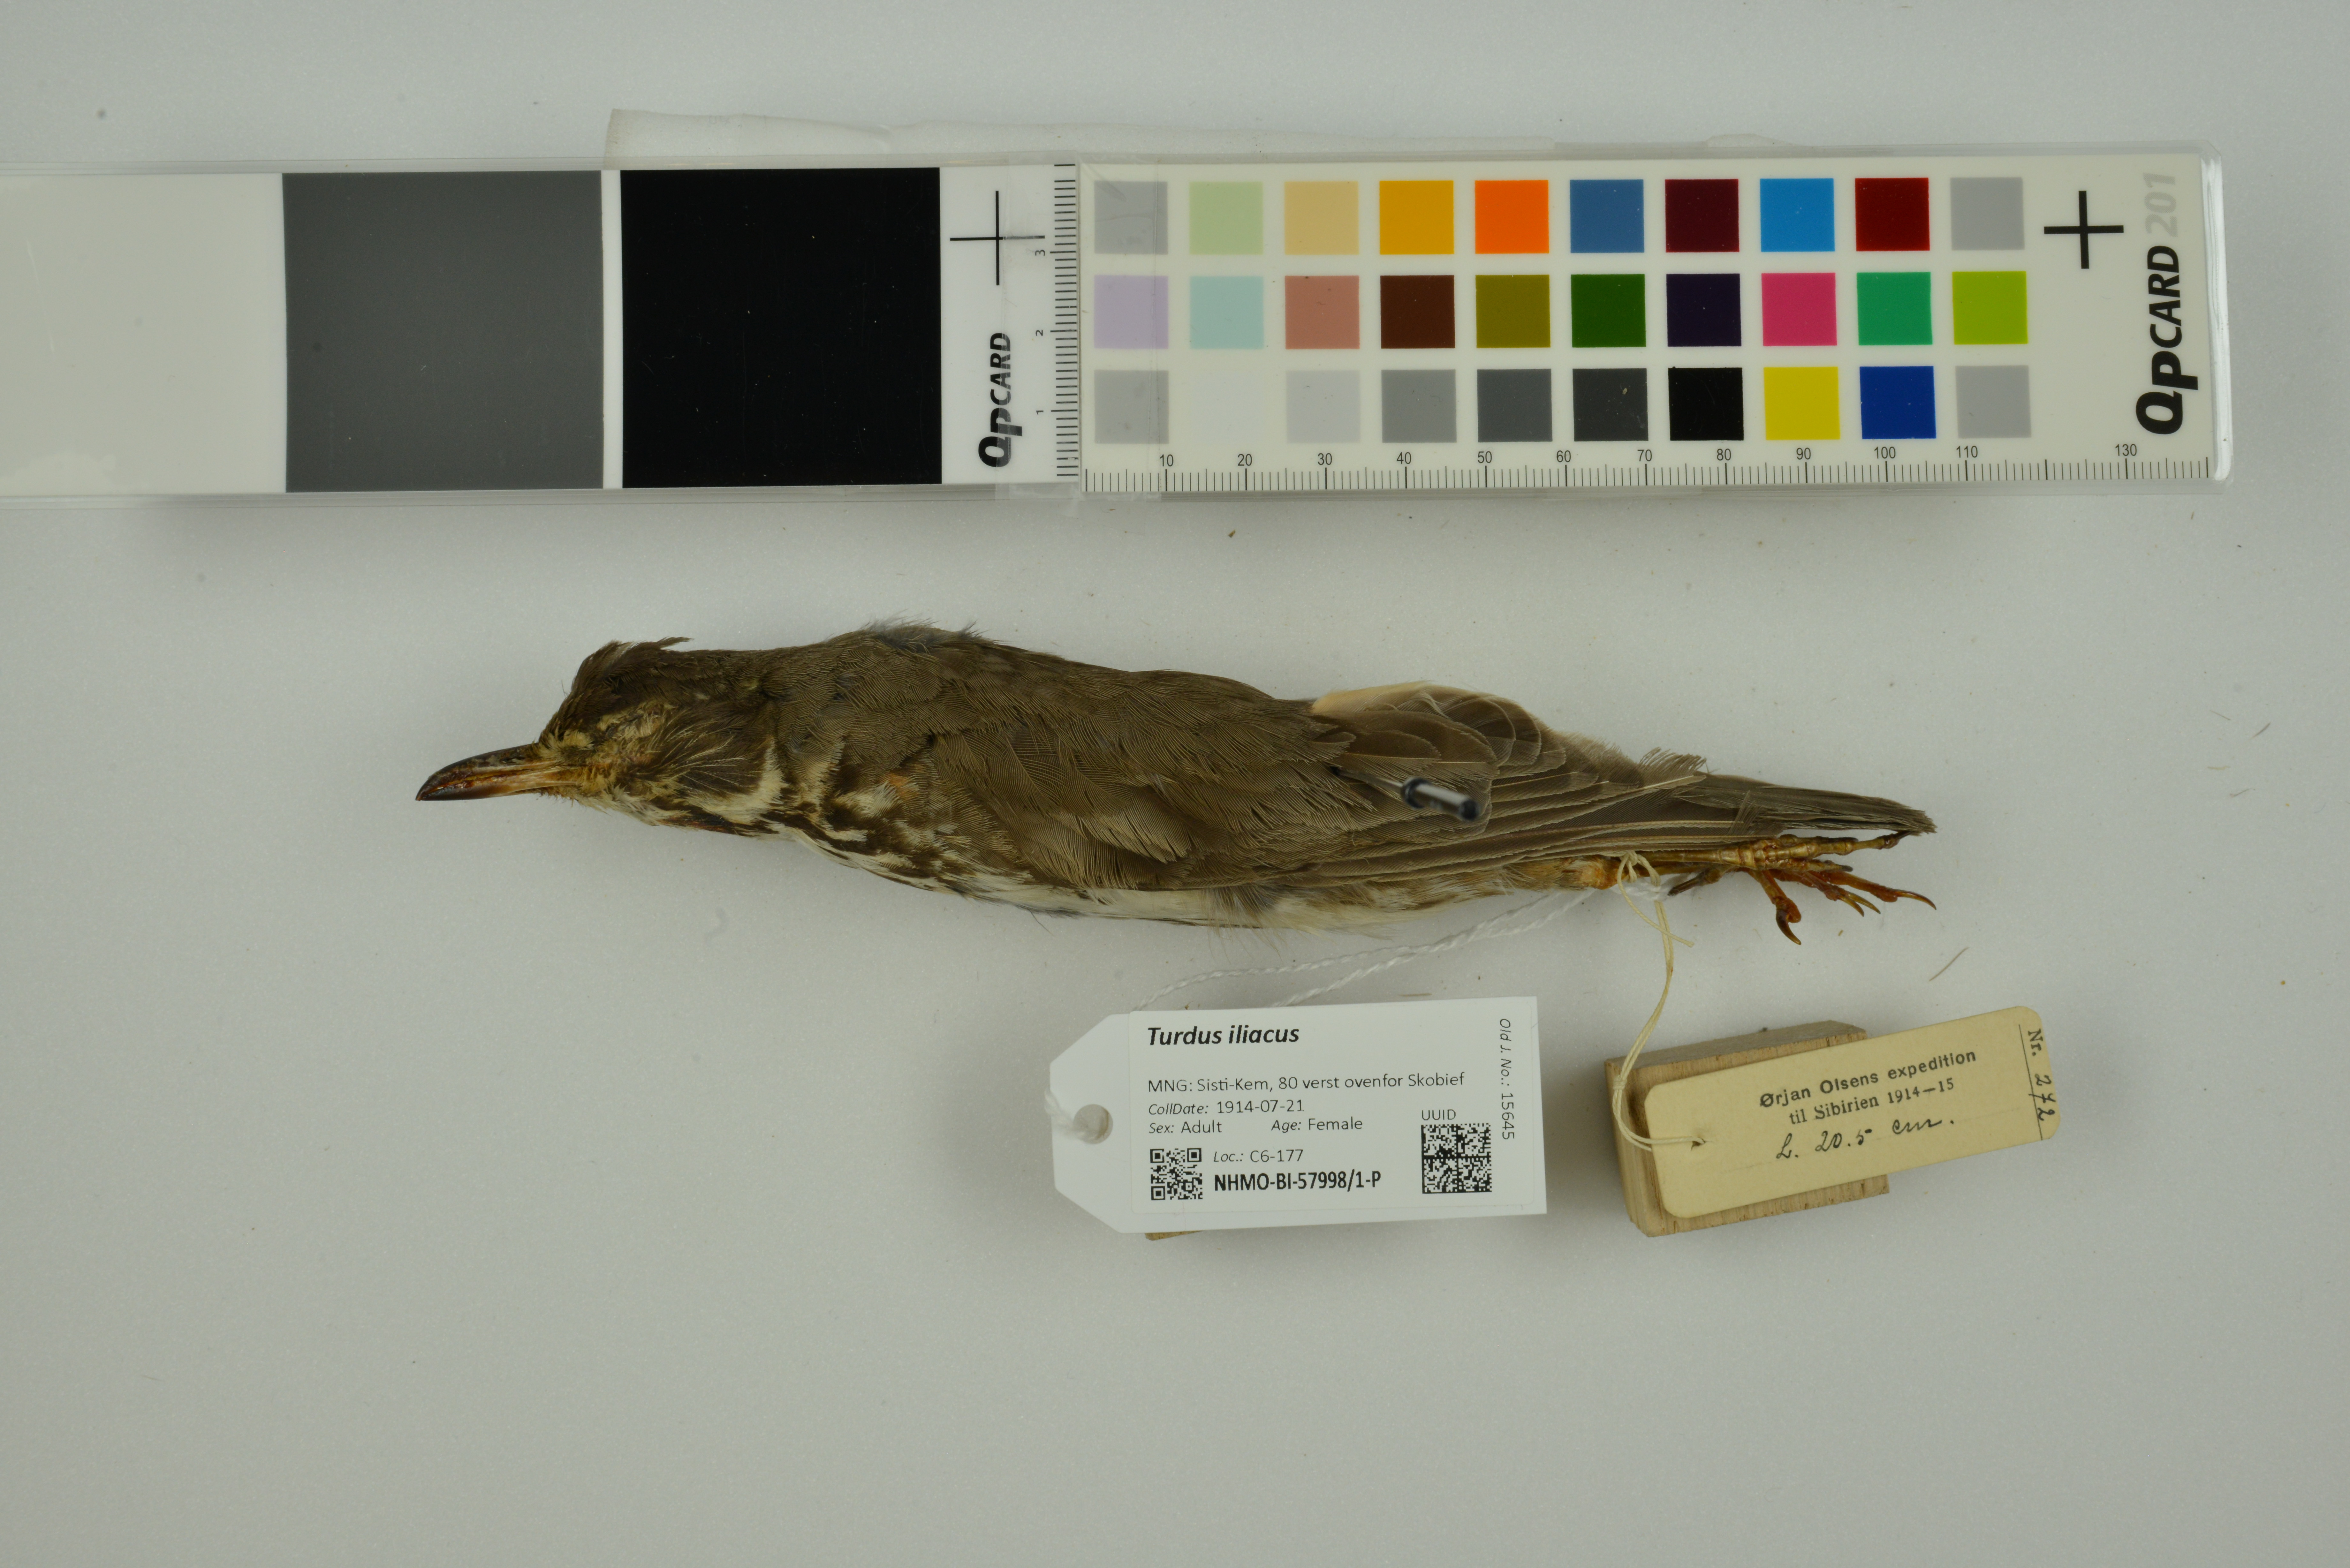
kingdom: Animalia
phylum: Chordata
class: Aves
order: Passeriformes
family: Turdidae
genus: Turdus
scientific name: Turdus iliacus
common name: Redwing
